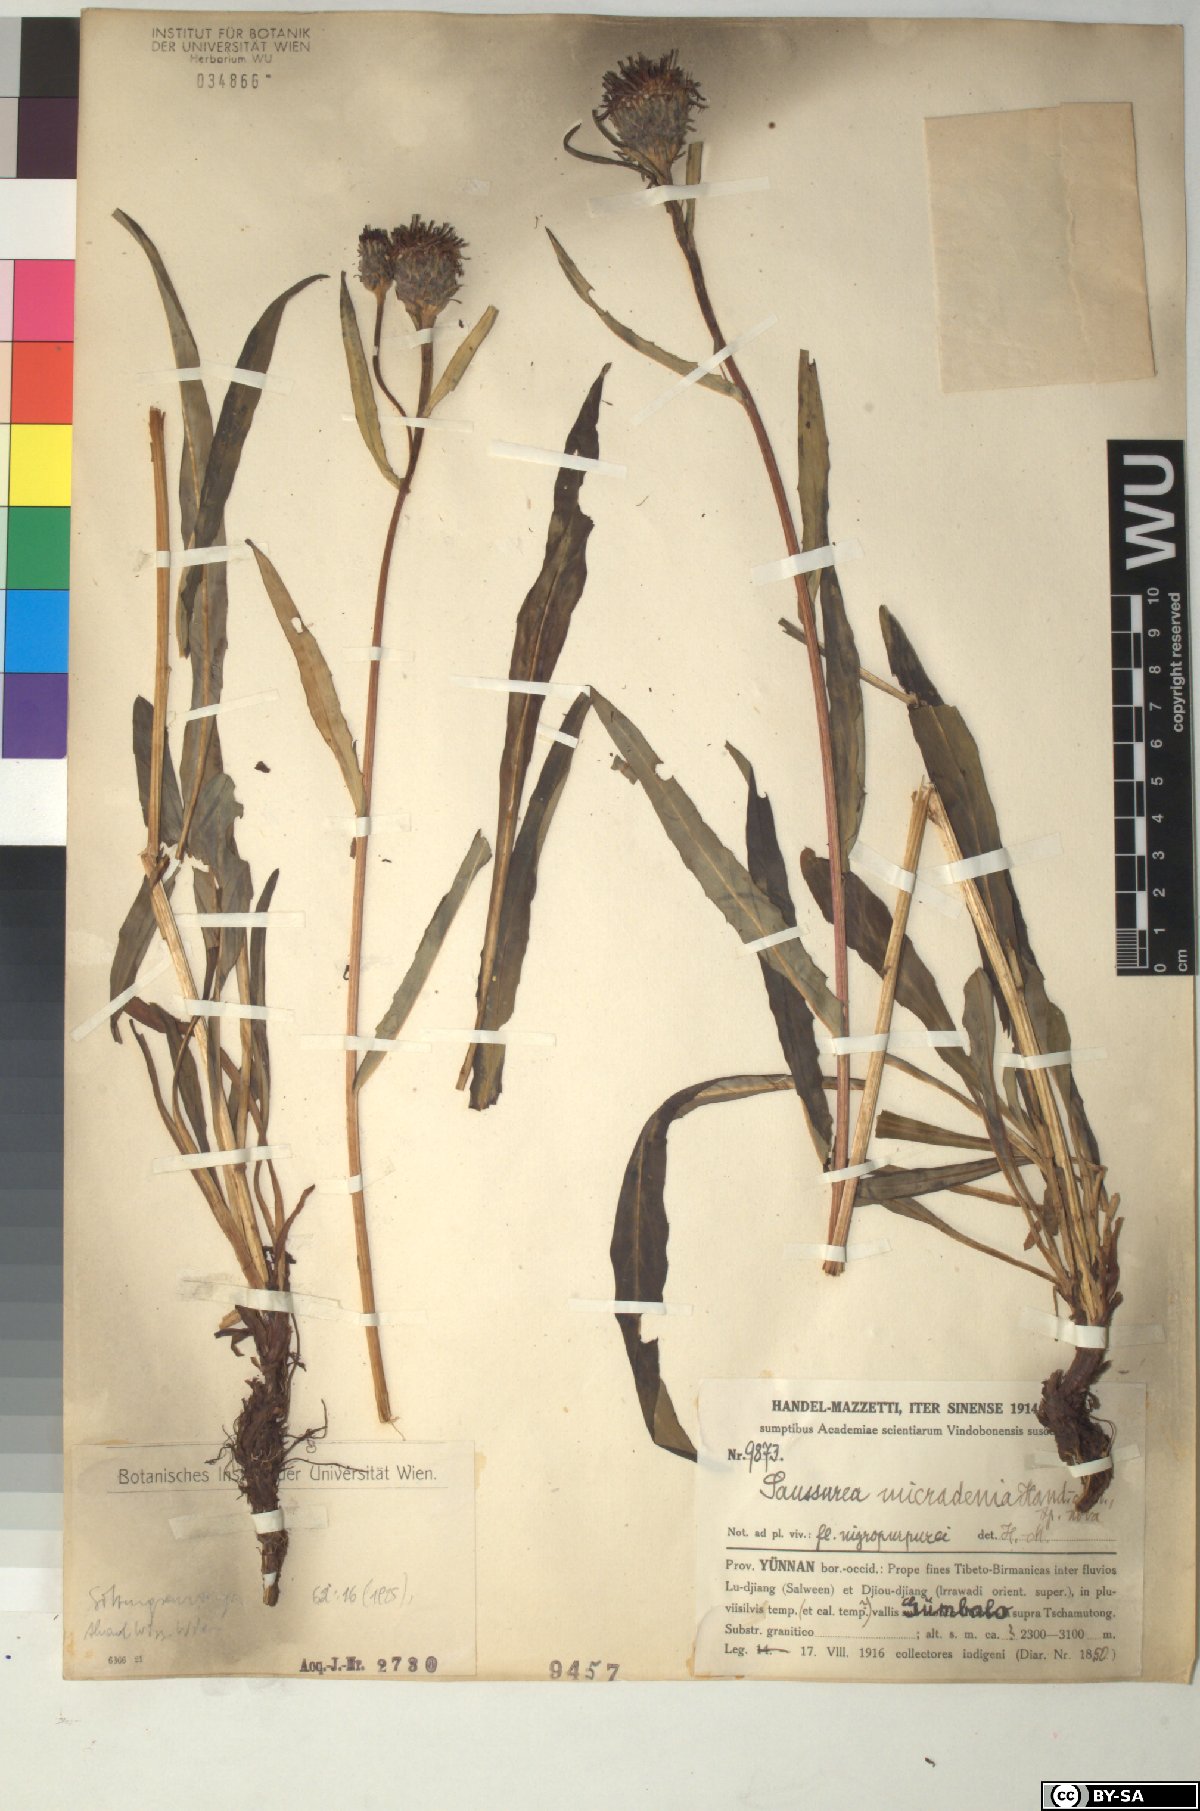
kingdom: Plantae
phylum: Tracheophyta
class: Magnoliopsida
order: Asterales
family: Asteraceae
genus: Saussurea
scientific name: Saussurea micradenia
